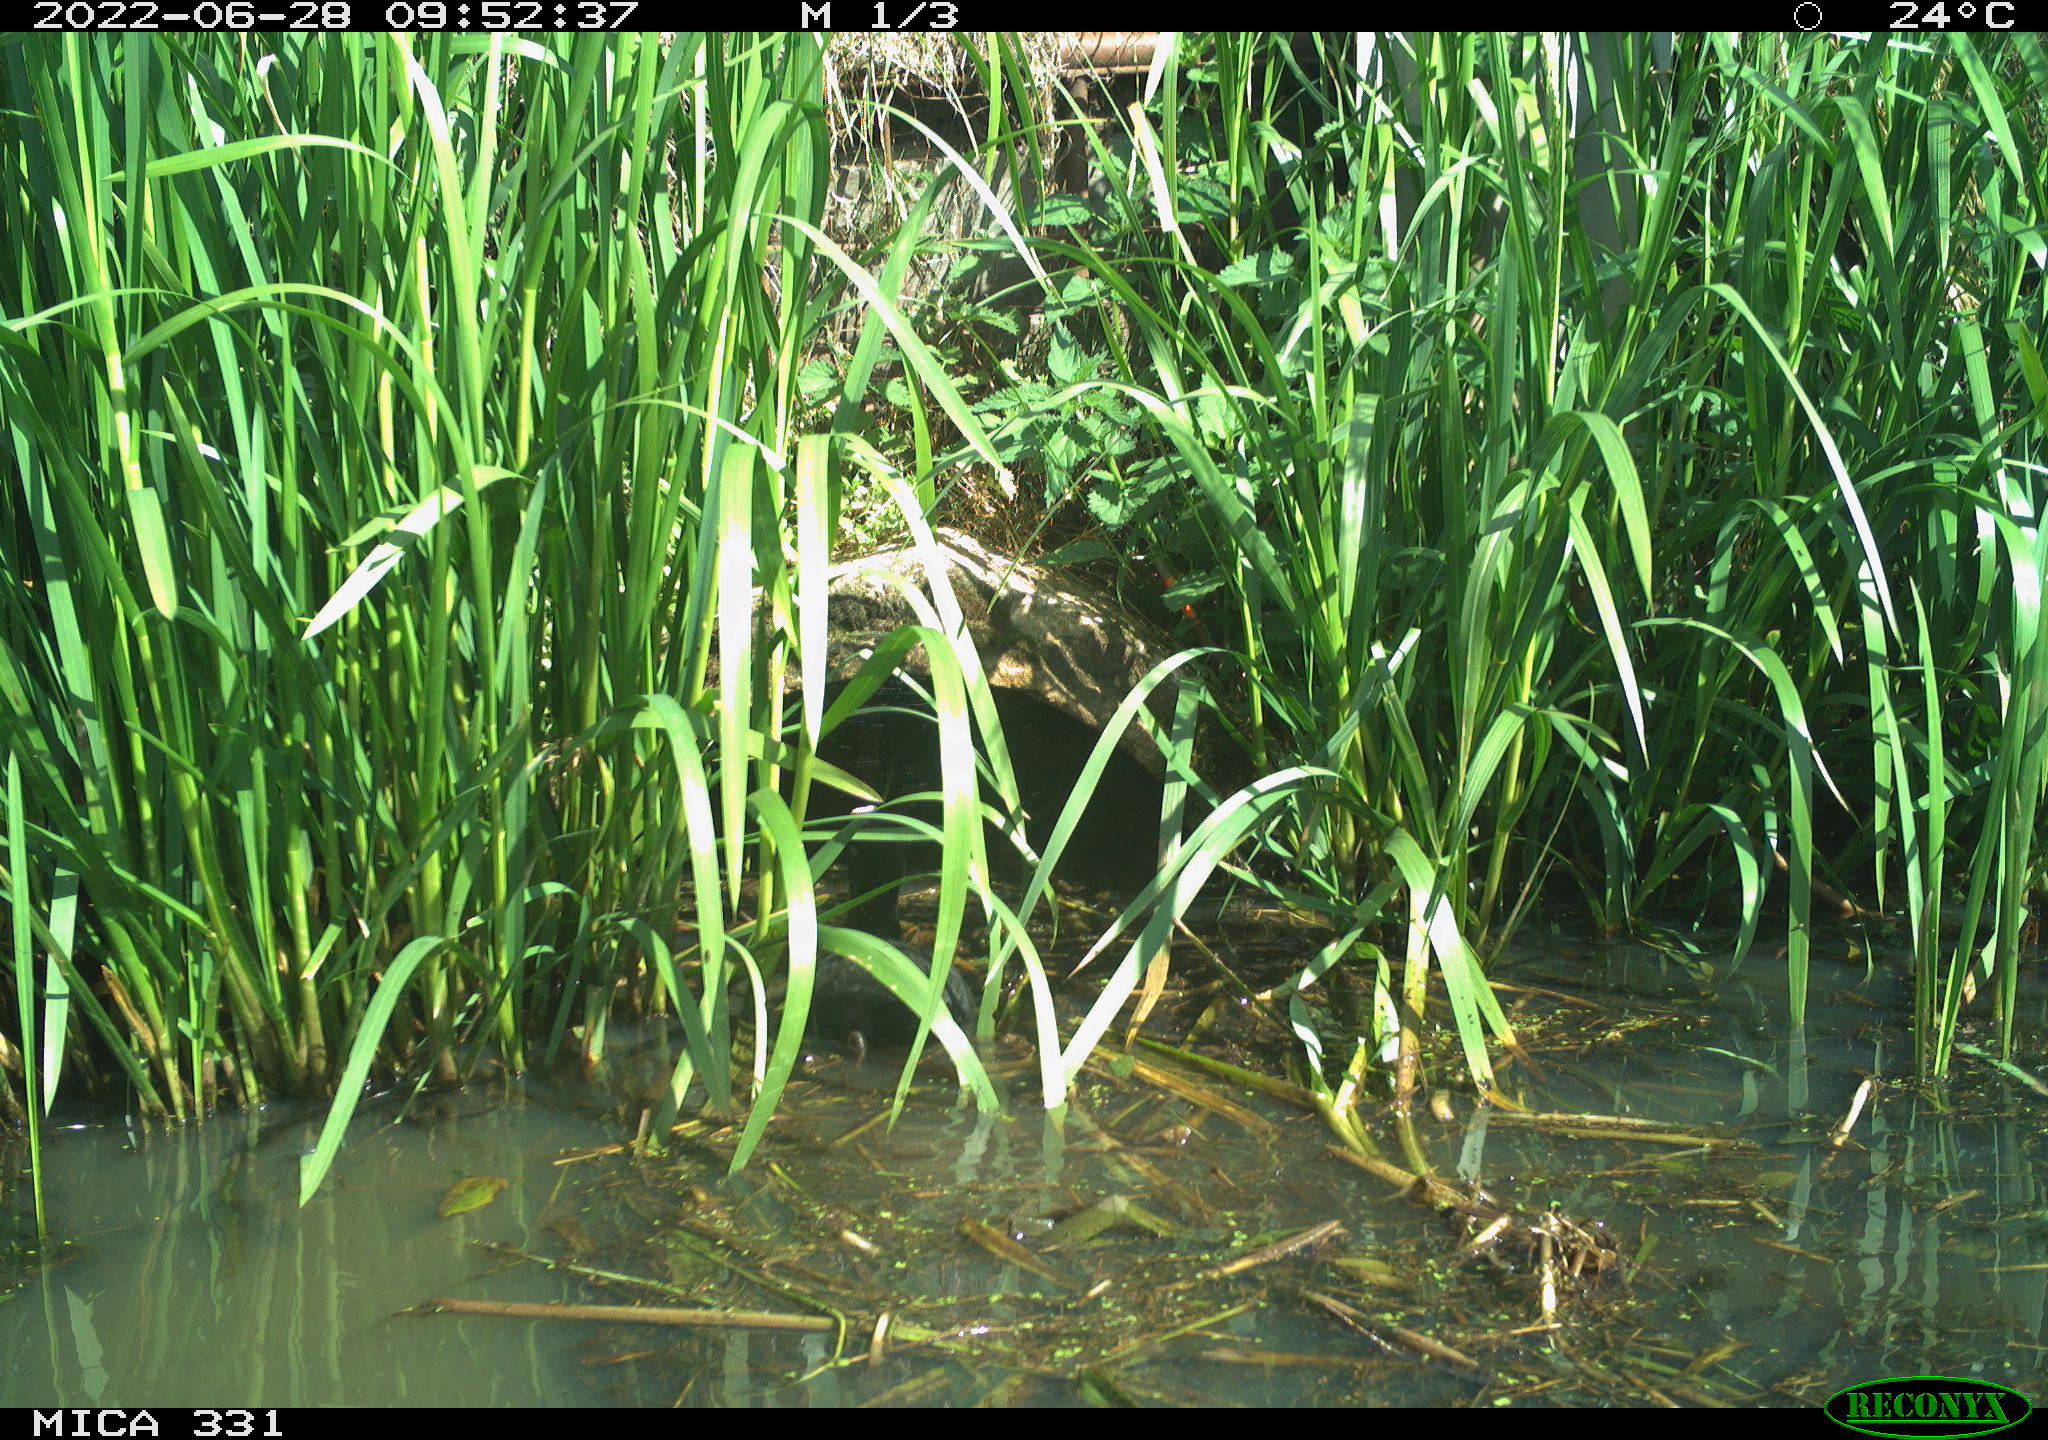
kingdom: Animalia
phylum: Chordata
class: Aves
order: Gruiformes
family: Rallidae
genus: Fulica
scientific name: Fulica atra
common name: Eurasian coot
